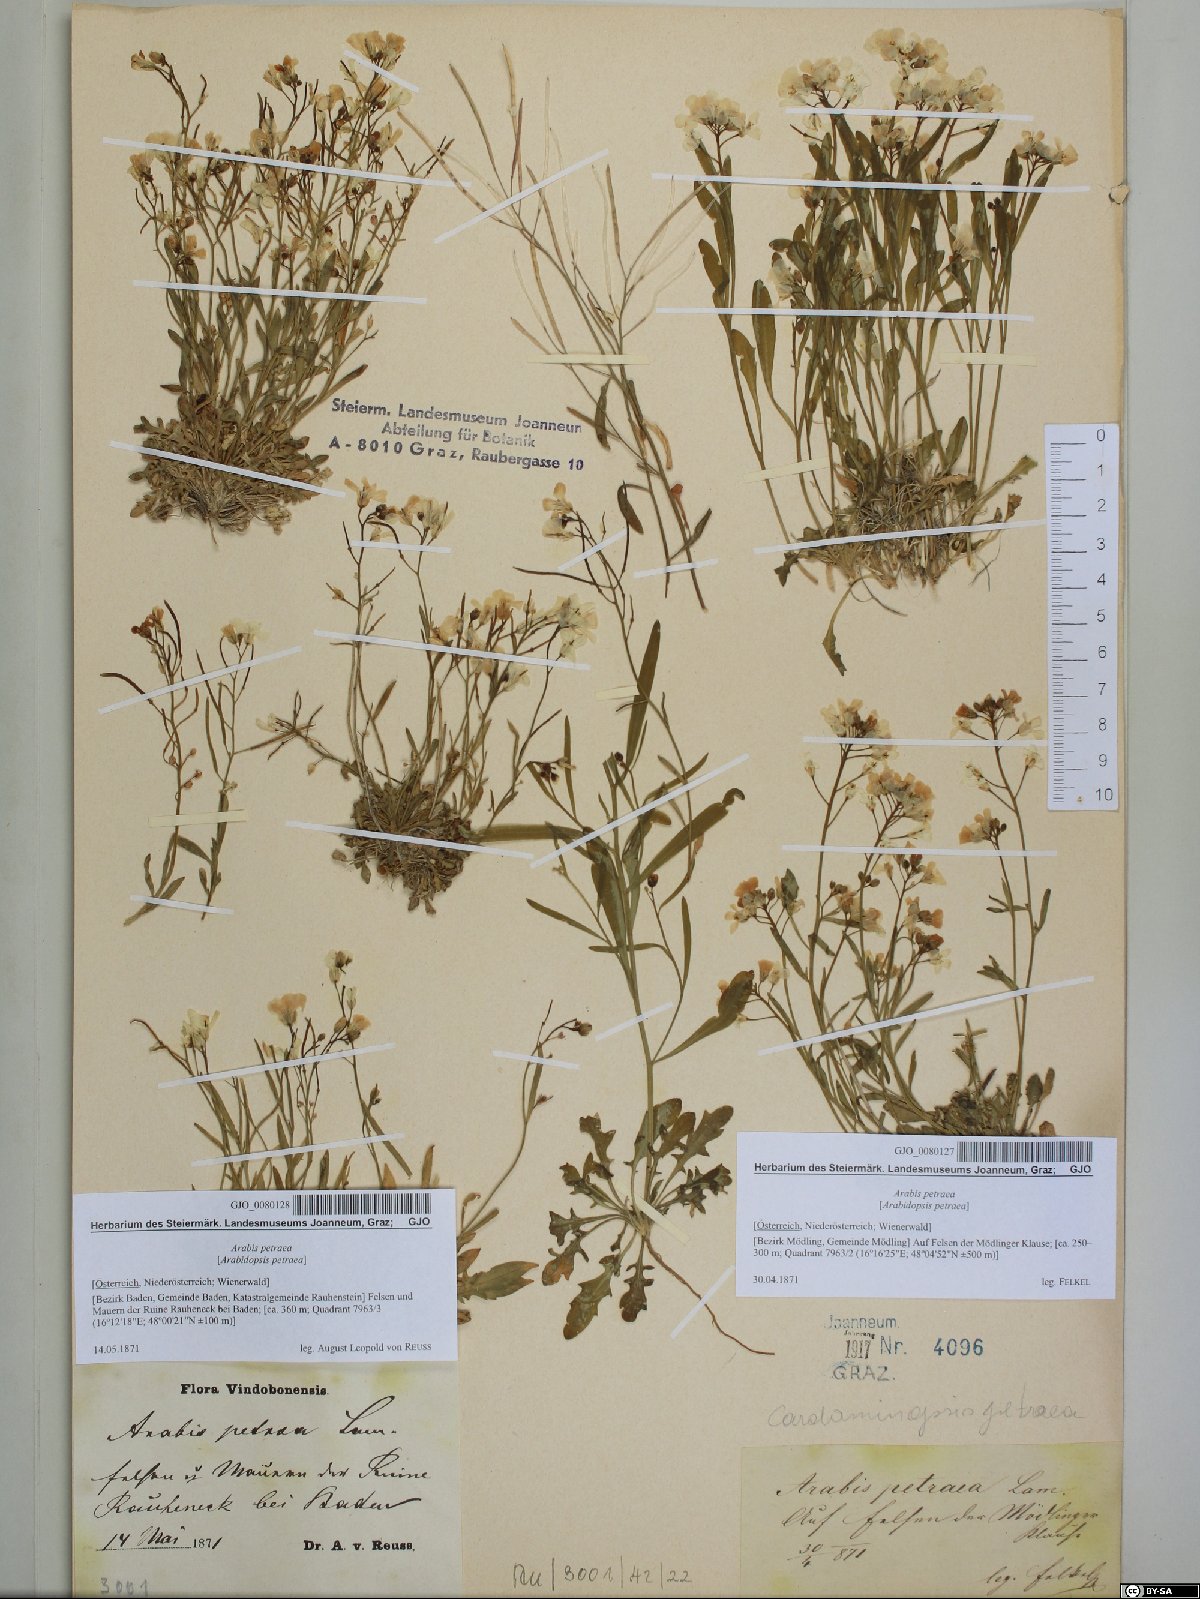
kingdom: Plantae
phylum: Tracheophyta
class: Magnoliopsida
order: Brassicales
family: Brassicaceae
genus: Arabidopsis
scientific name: Arabidopsis lyrata
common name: Lyrate rockcress
